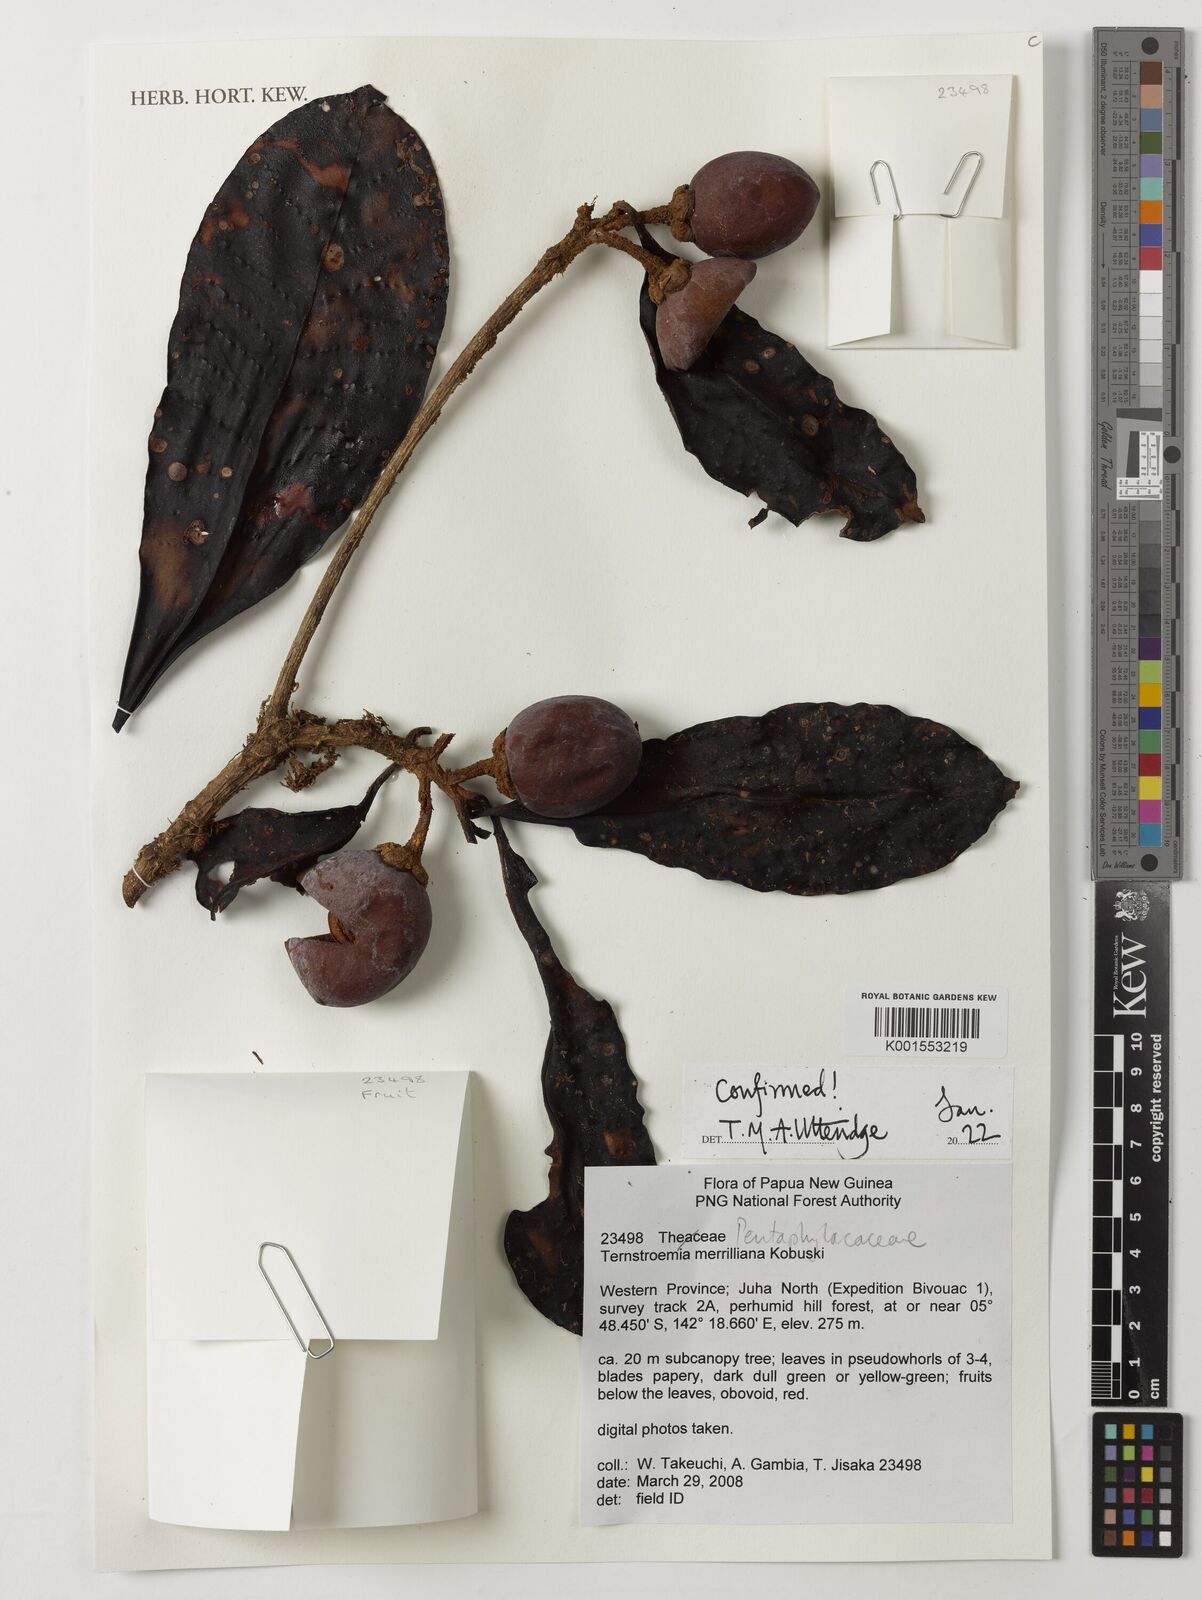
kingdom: Plantae
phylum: Tracheophyta
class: Magnoliopsida
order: Ericales
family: Pentaphylacaceae
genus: Ternstroemia
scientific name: Ternstroemia merrilliana
